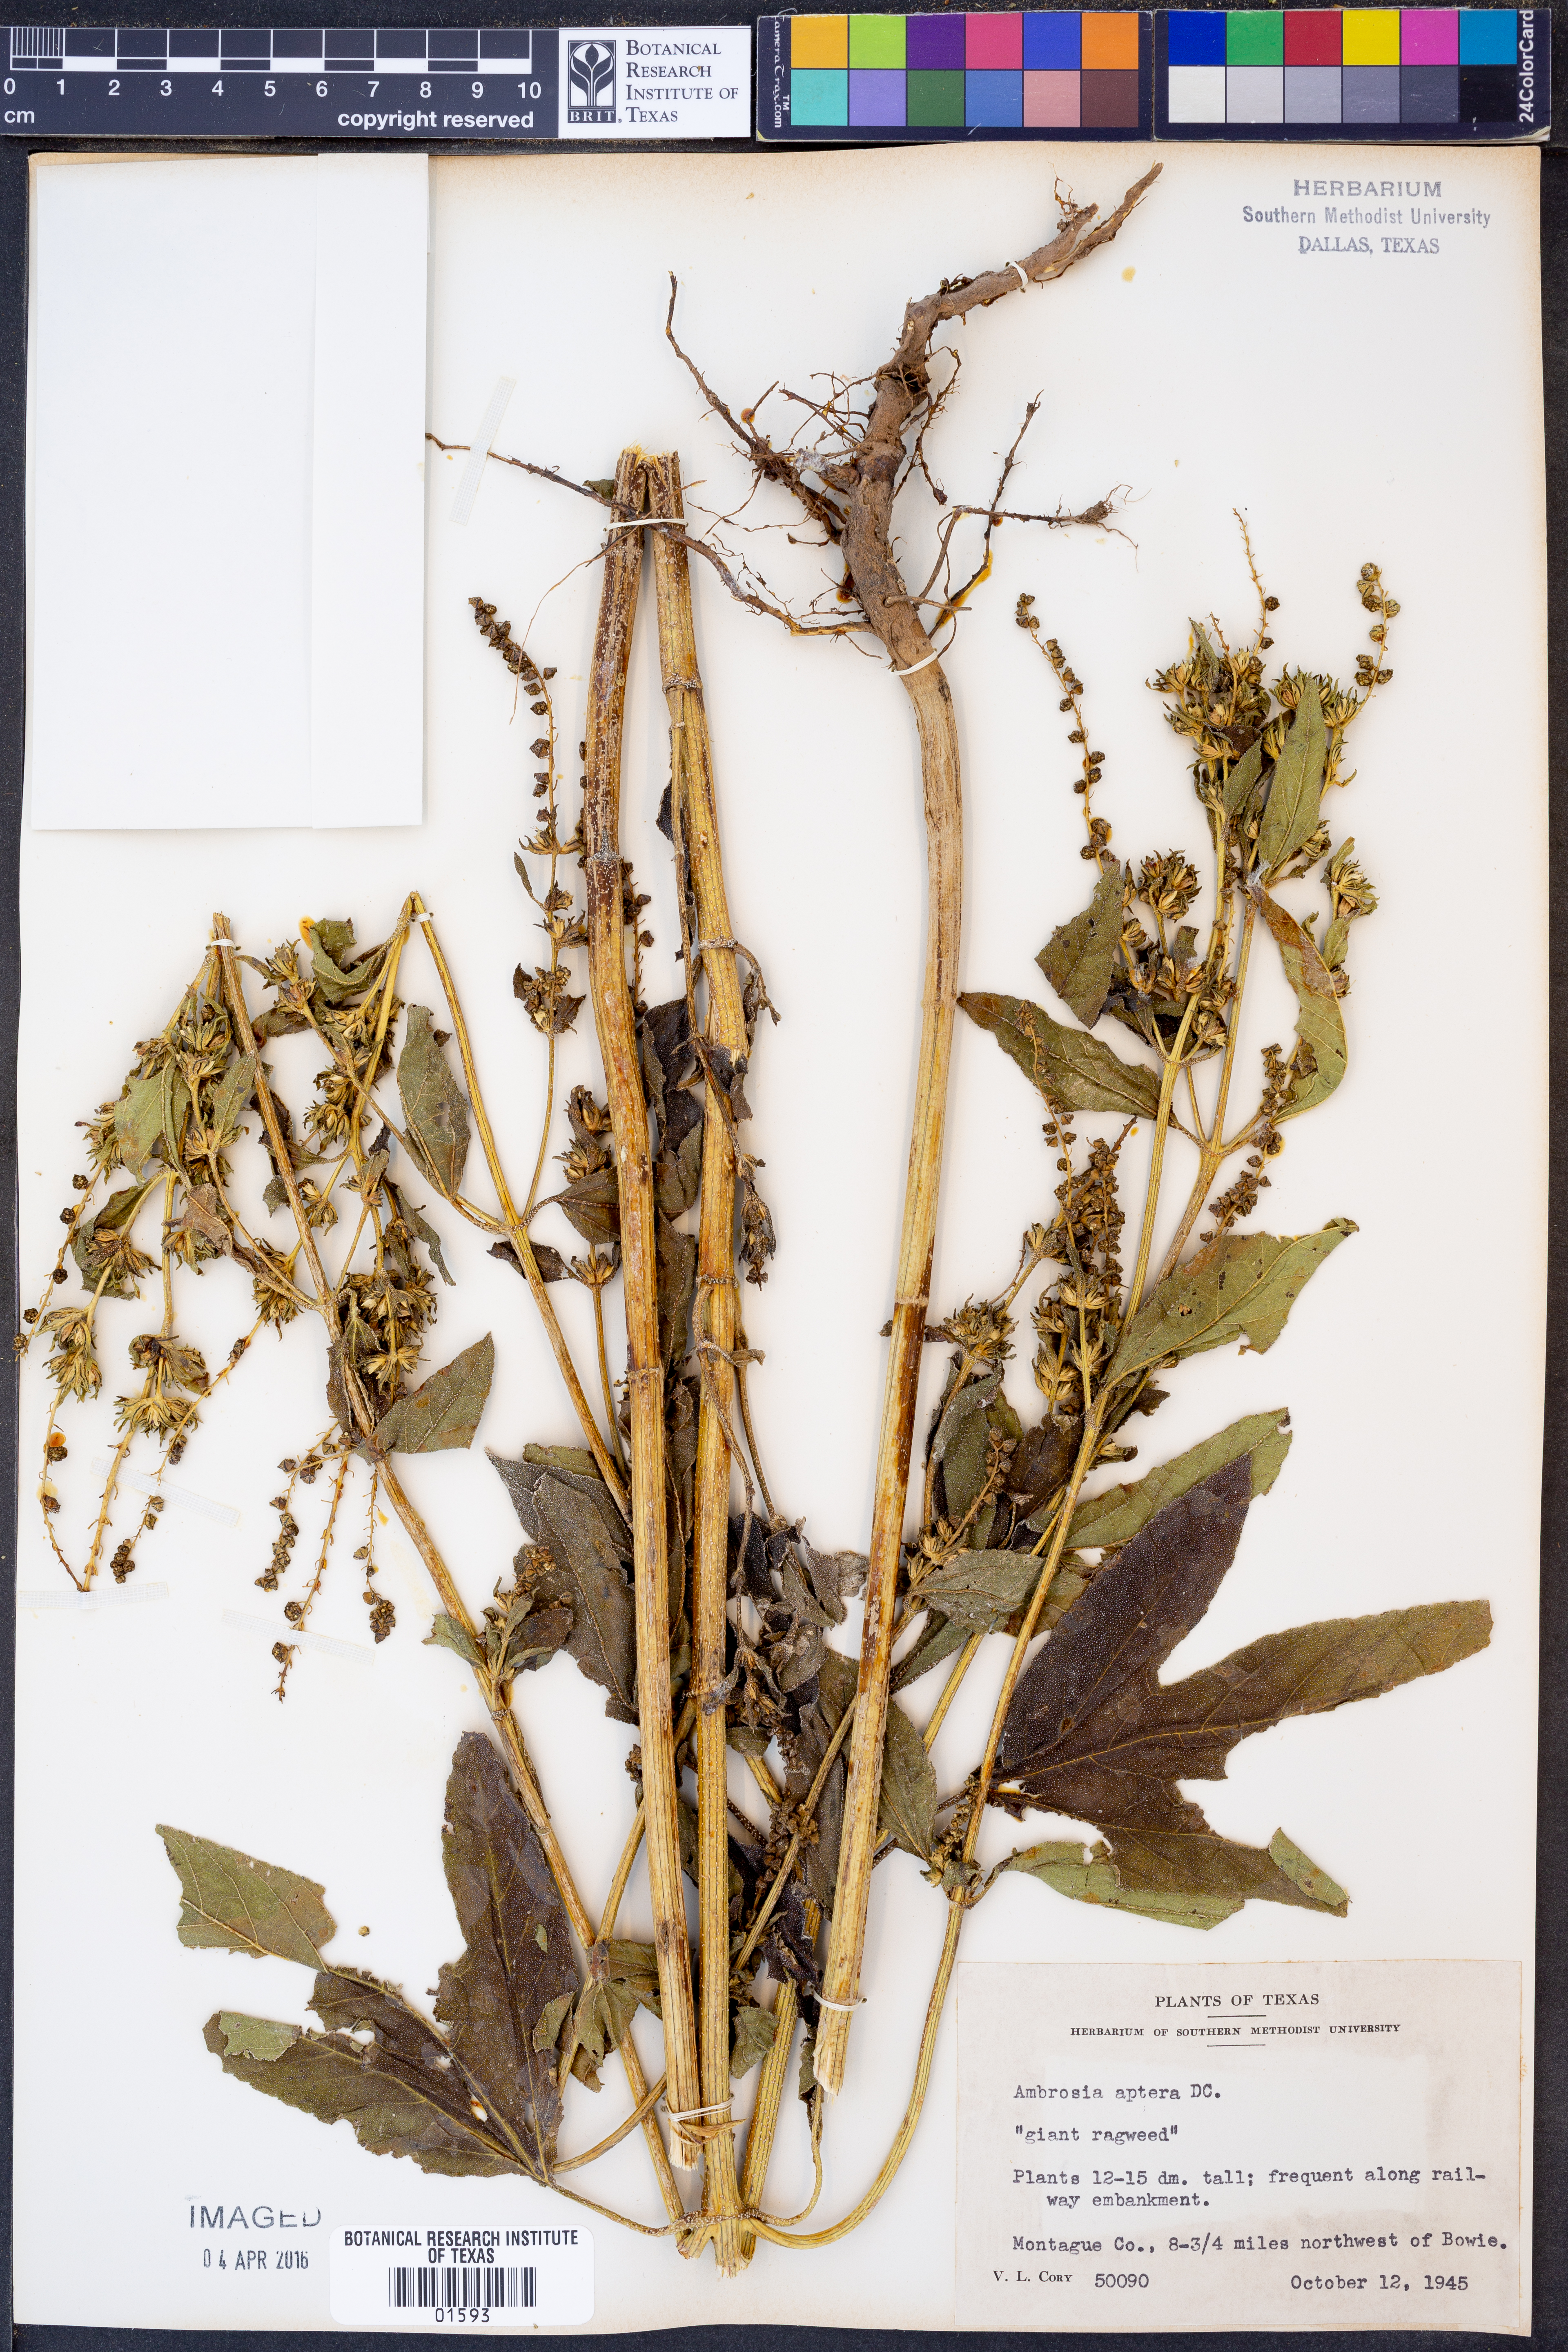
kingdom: Plantae
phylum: Tracheophyta
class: Magnoliopsida
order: Asterales
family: Asteraceae
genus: Ambrosia
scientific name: Ambrosia trifida
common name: Giant ragweed
